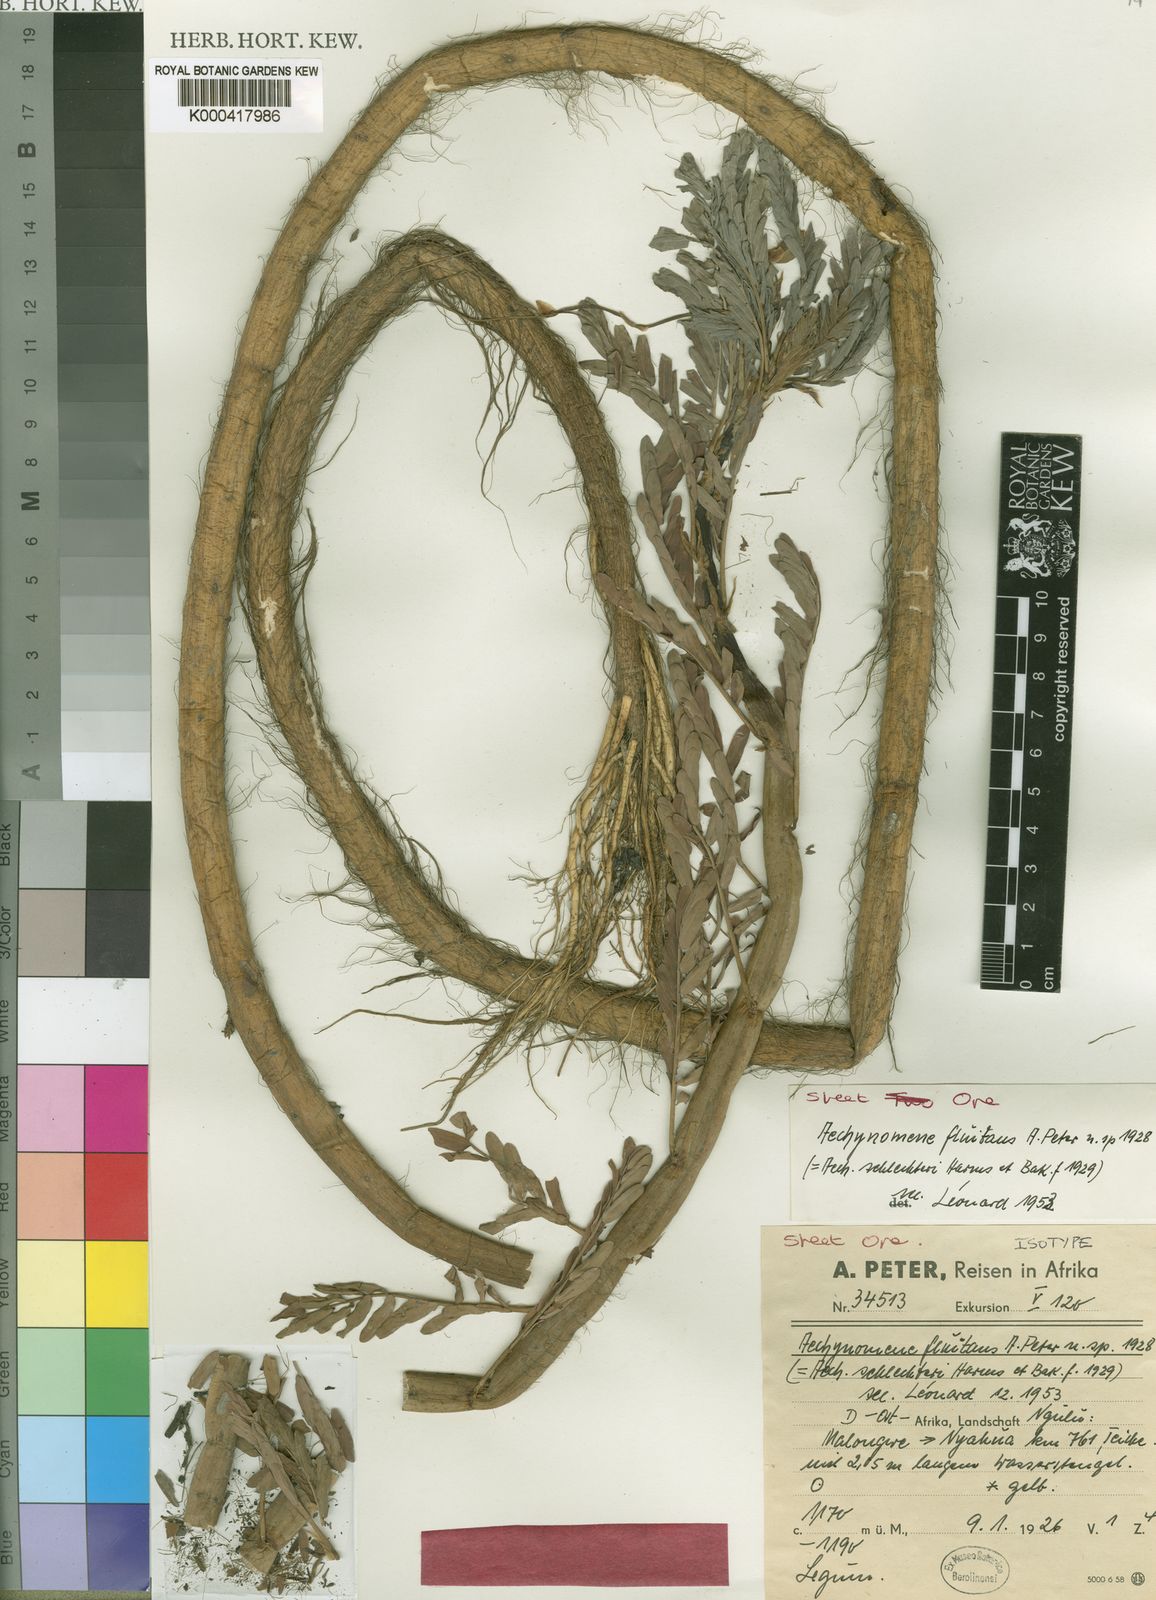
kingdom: Plantae
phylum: Tracheophyta
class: Magnoliopsida
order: Fabales
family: Fabaceae
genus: Aeschynomene
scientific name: Aeschynomene fluitans
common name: Giant water sensitive plant
